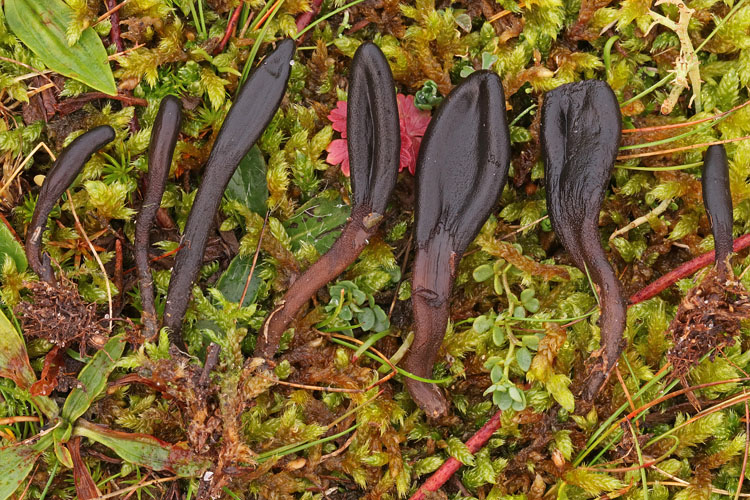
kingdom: Fungi
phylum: Ascomycota
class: Geoglossomycetes
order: Geoglossales
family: Geoglossaceae
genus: Hemileucoglossum
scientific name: Hemileucoglossum elongatum
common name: småsporet jordtunge
